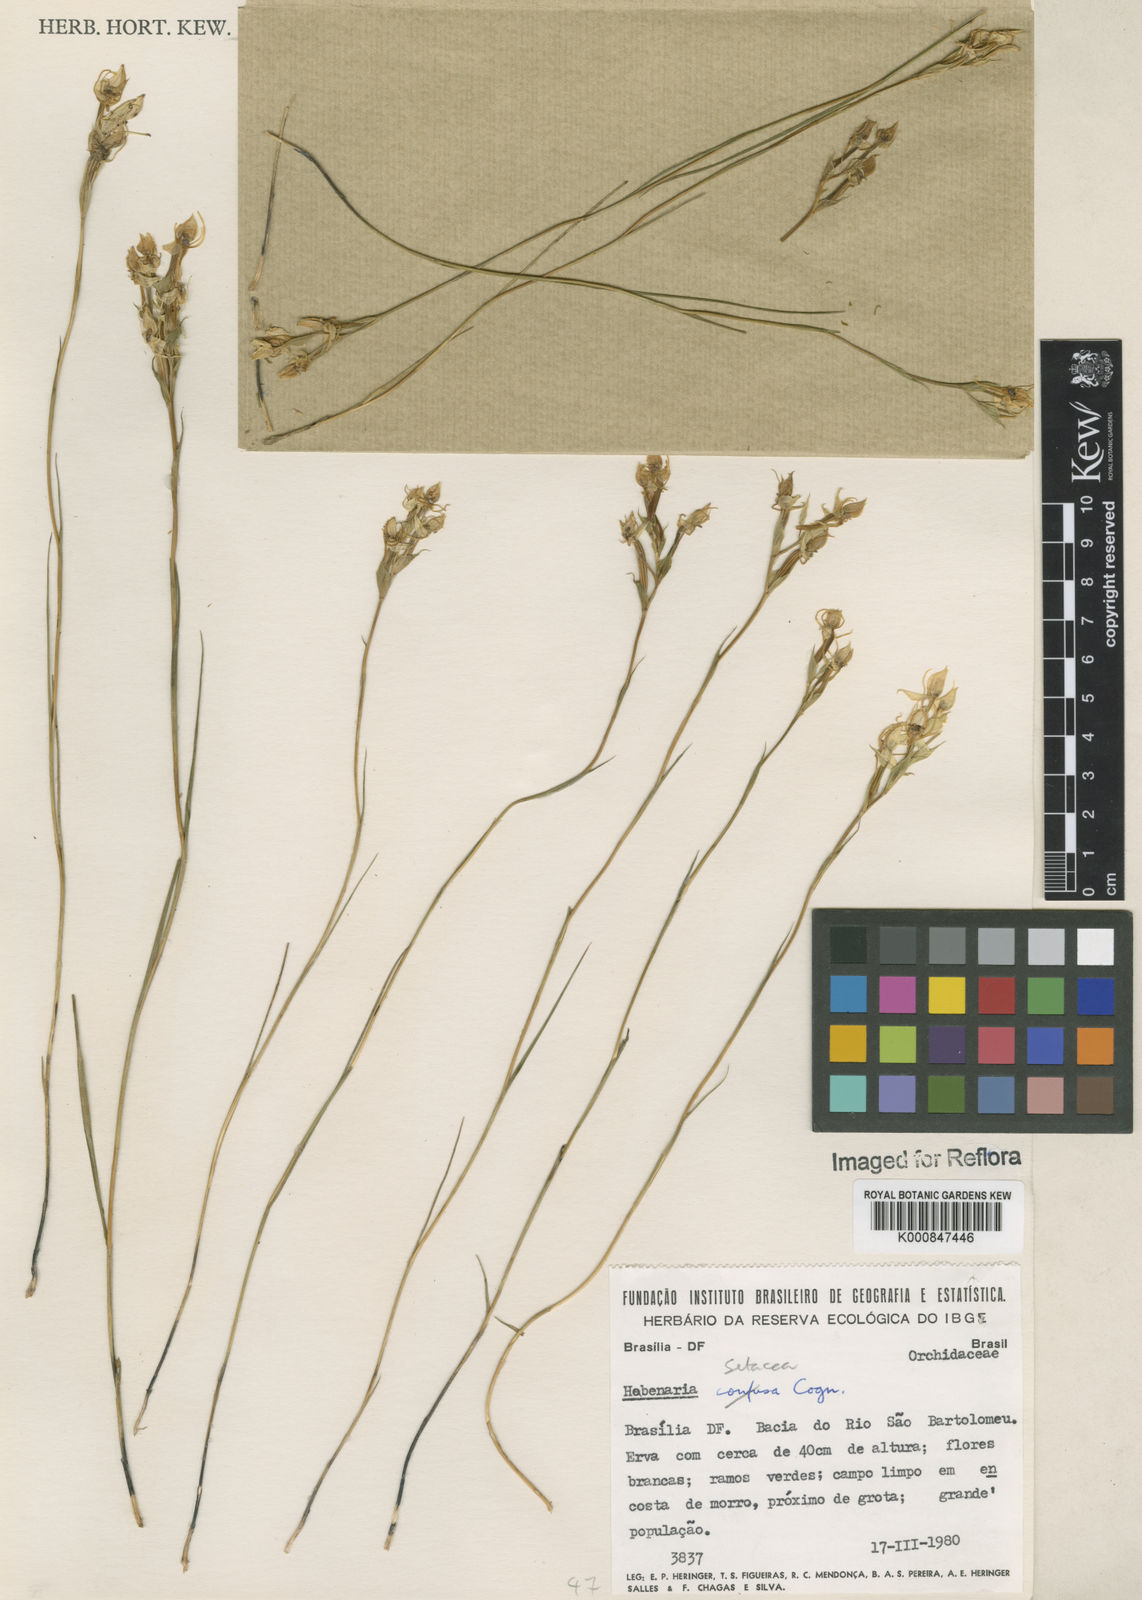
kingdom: Plantae
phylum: Tracheophyta
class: Liliopsida
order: Asparagales
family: Orchidaceae
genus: Habenaria
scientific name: Habenaria
